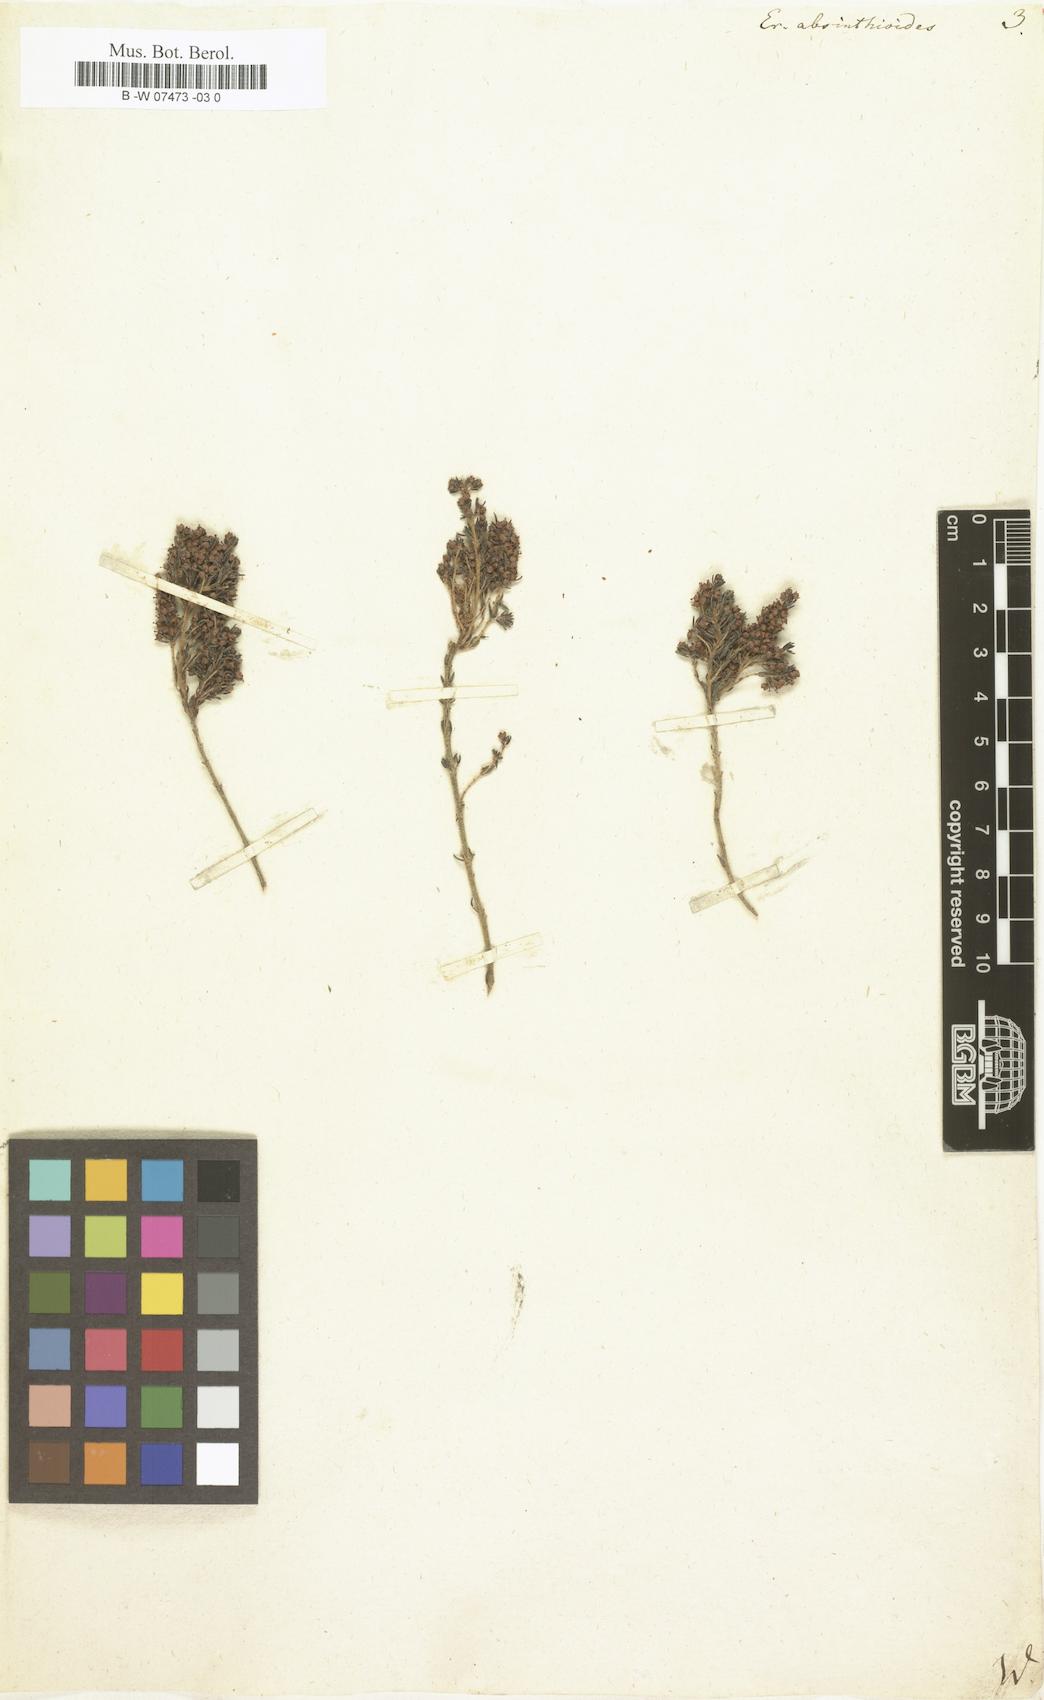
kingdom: Plantae
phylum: Tracheophyta
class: Magnoliopsida
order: Ericales
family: Ericaceae
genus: Erica
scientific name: Erica scoparia
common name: Green heather
